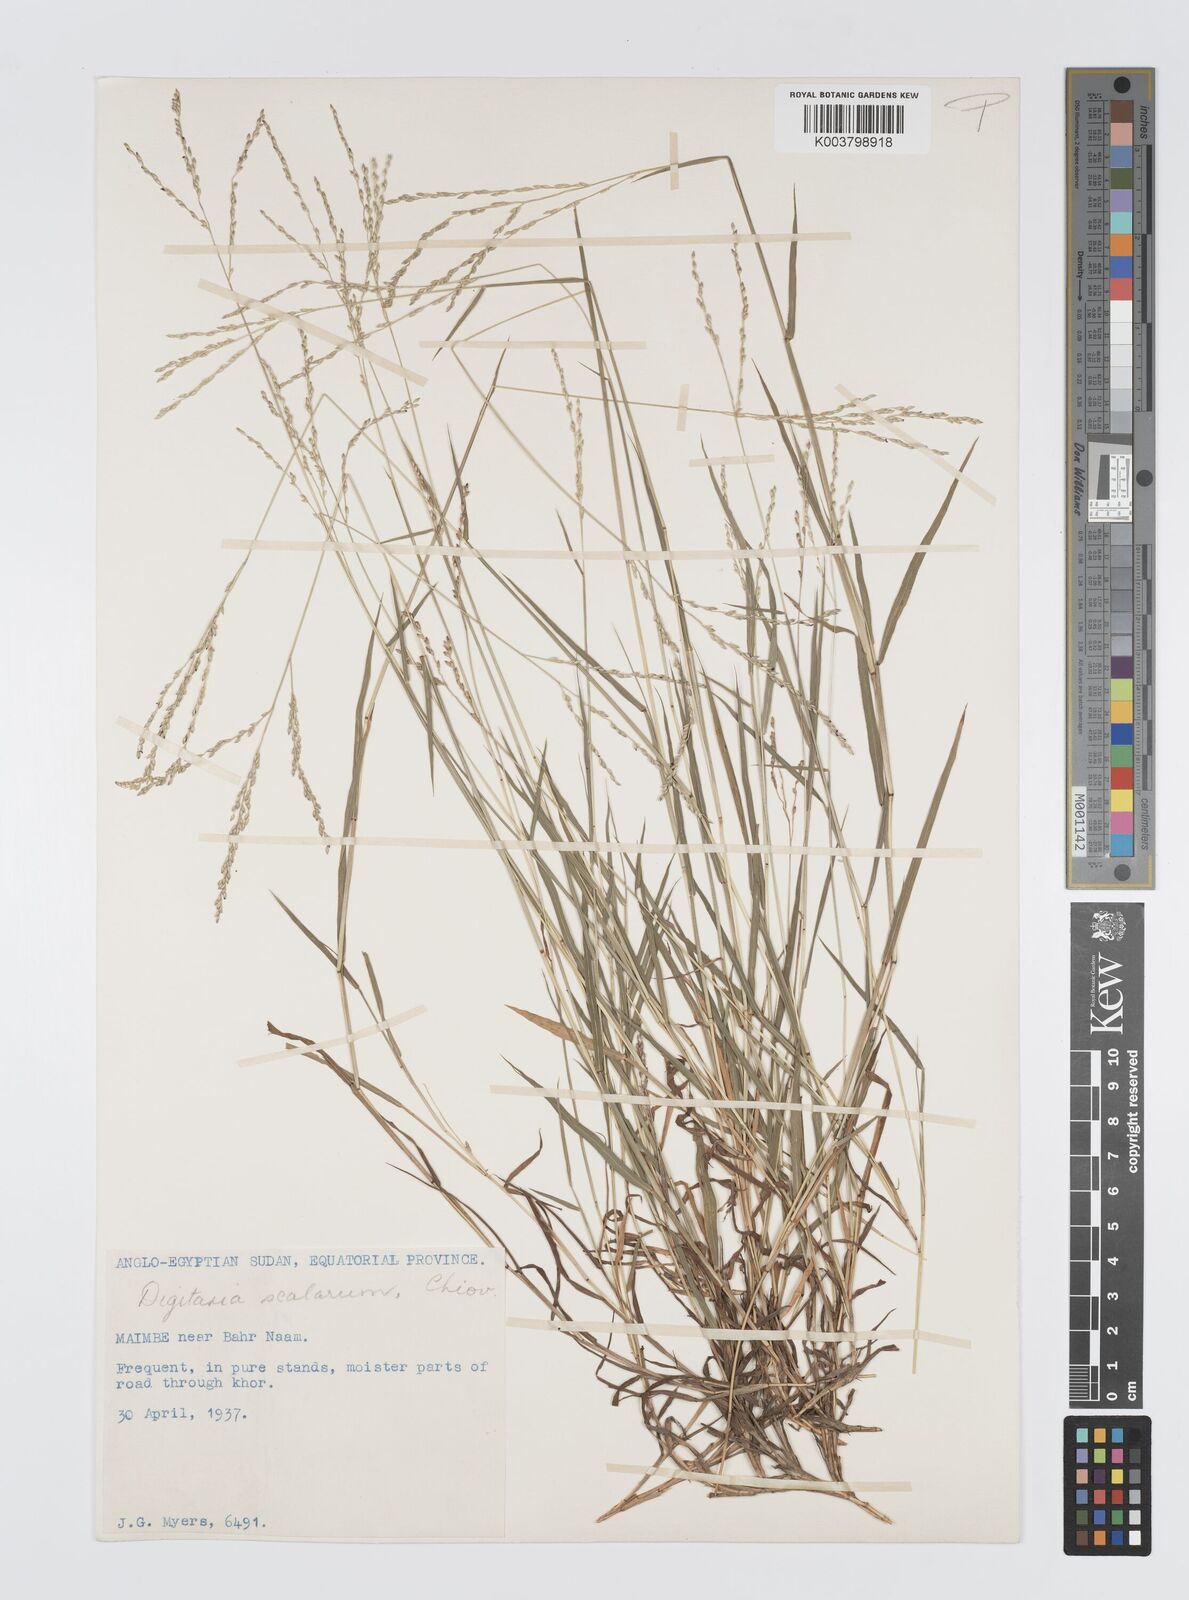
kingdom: Plantae
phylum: Tracheophyta
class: Liliopsida
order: Poales
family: Poaceae
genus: Digitaria
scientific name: Digitaria abyssinica
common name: African couchgrass
